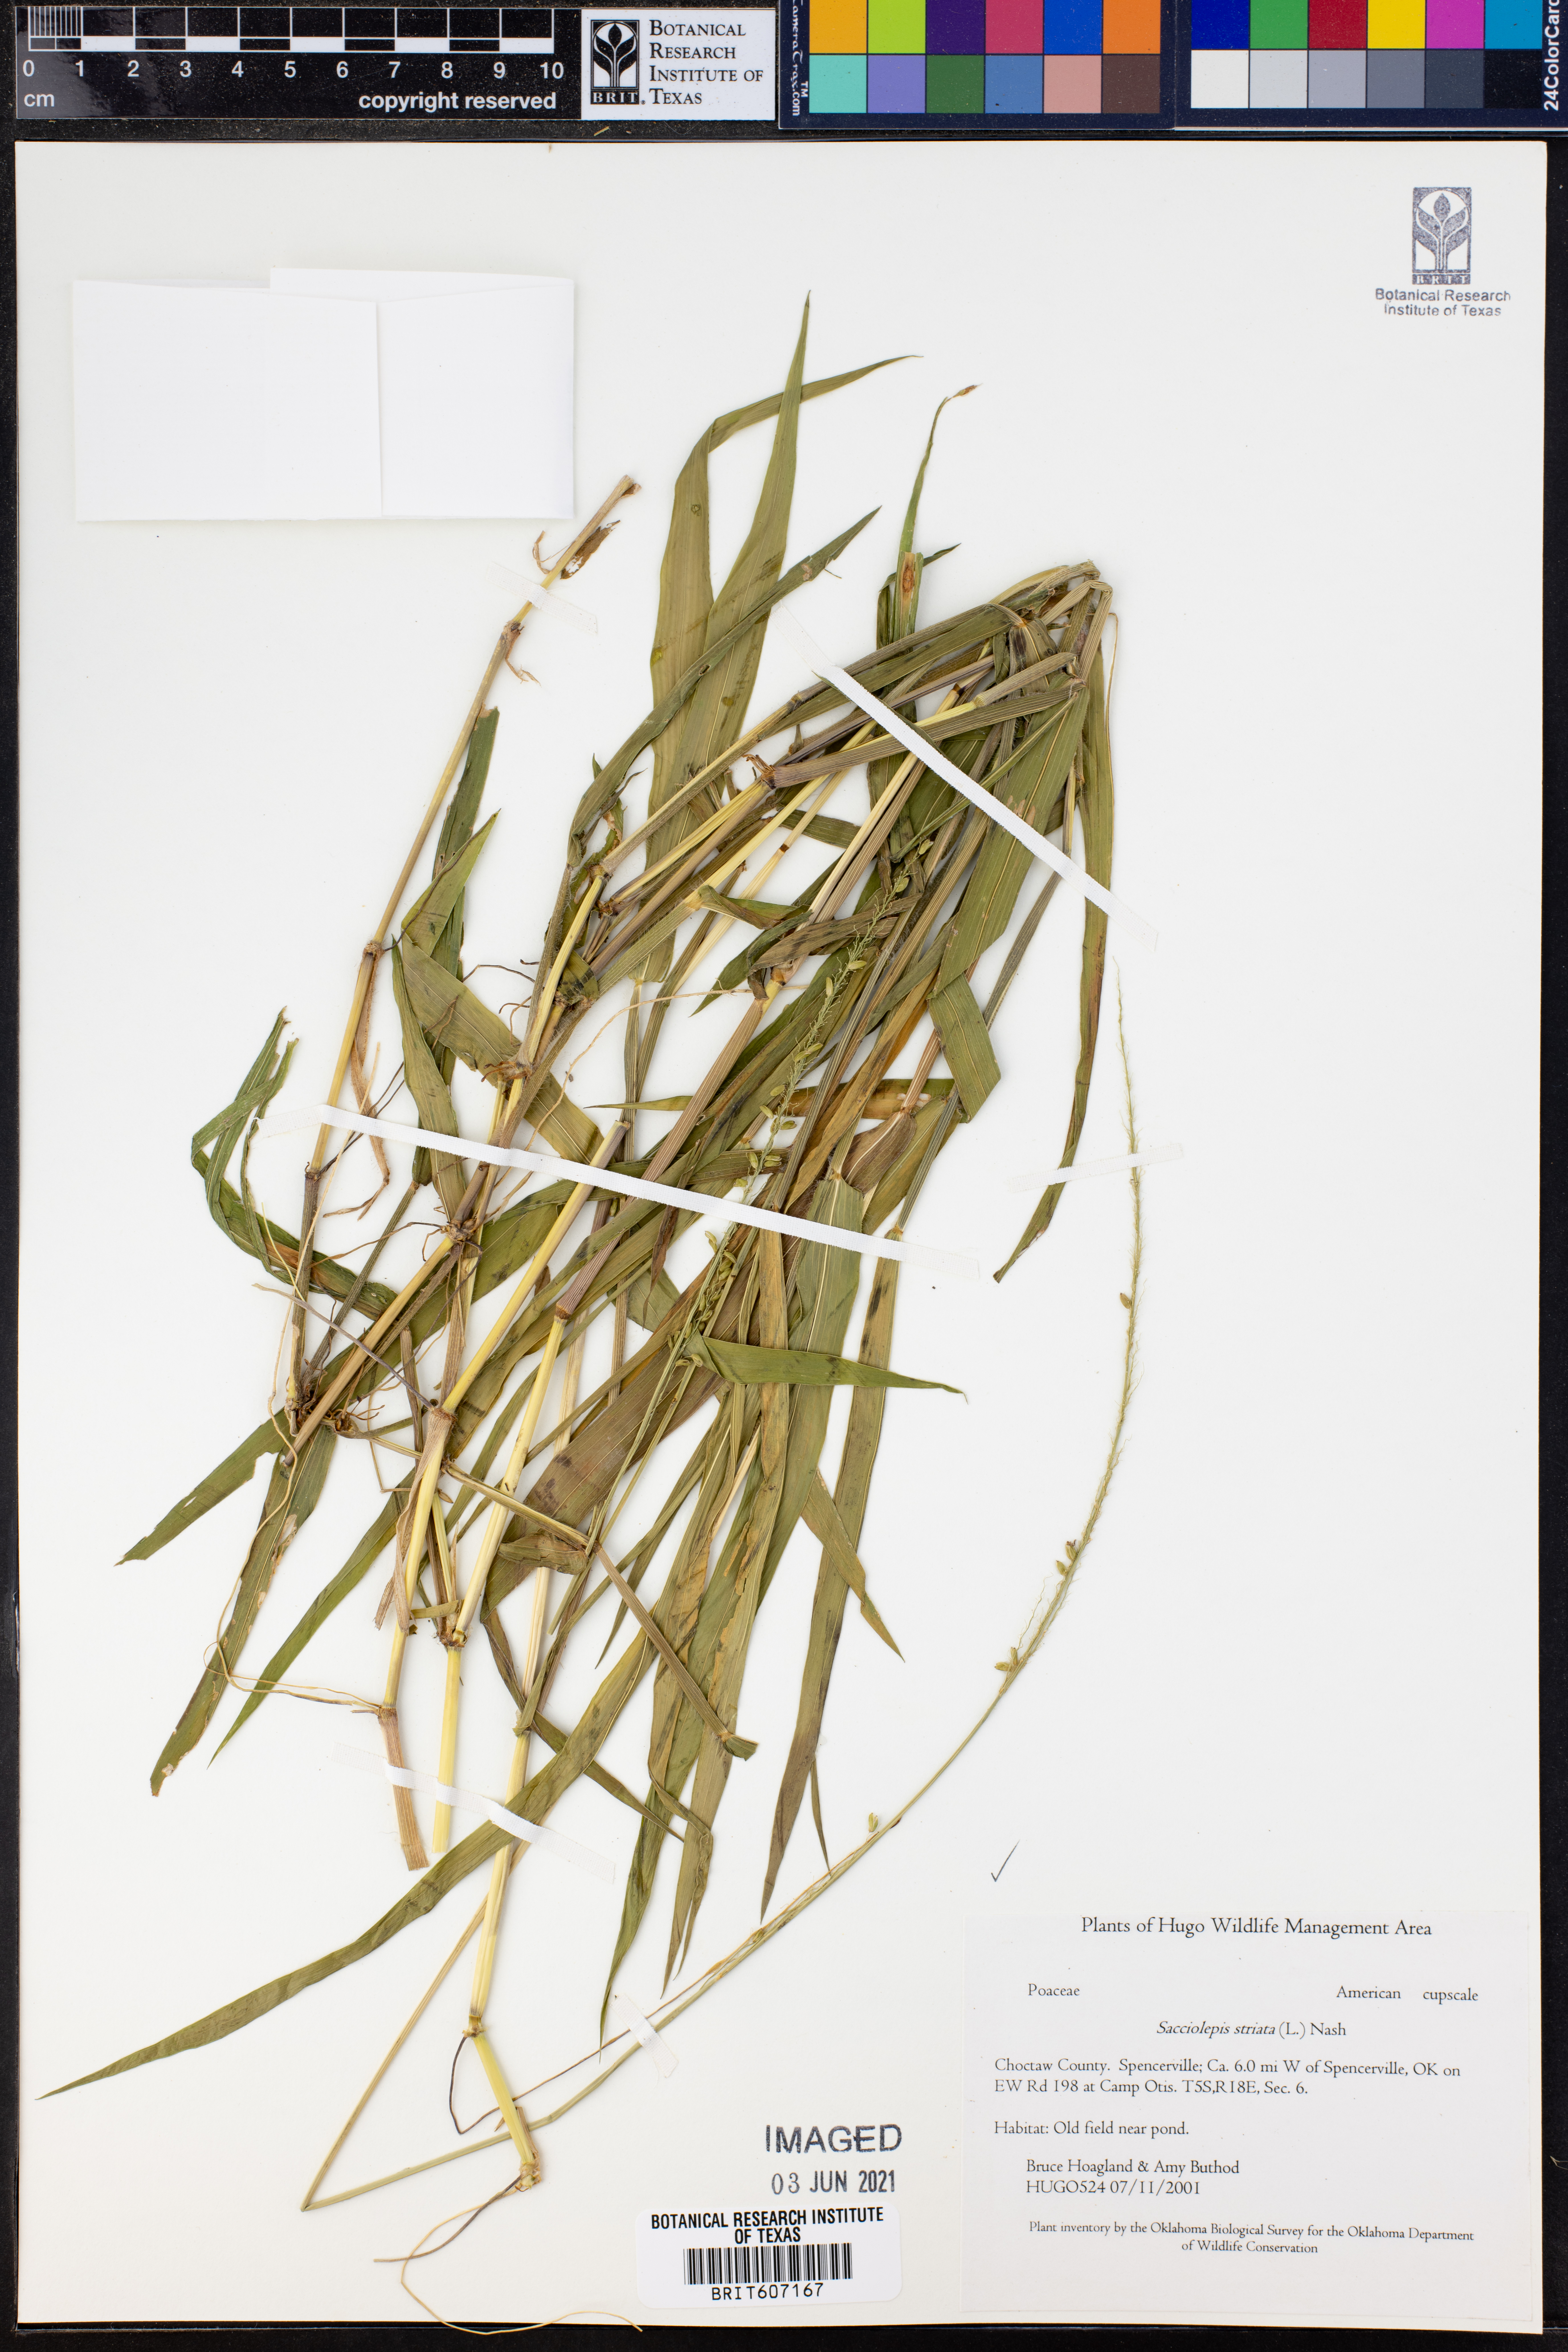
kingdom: Plantae
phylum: Tracheophyta
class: Liliopsida
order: Poales
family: Poaceae
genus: Sacciolepis
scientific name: Sacciolepis striata
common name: American cupscale
